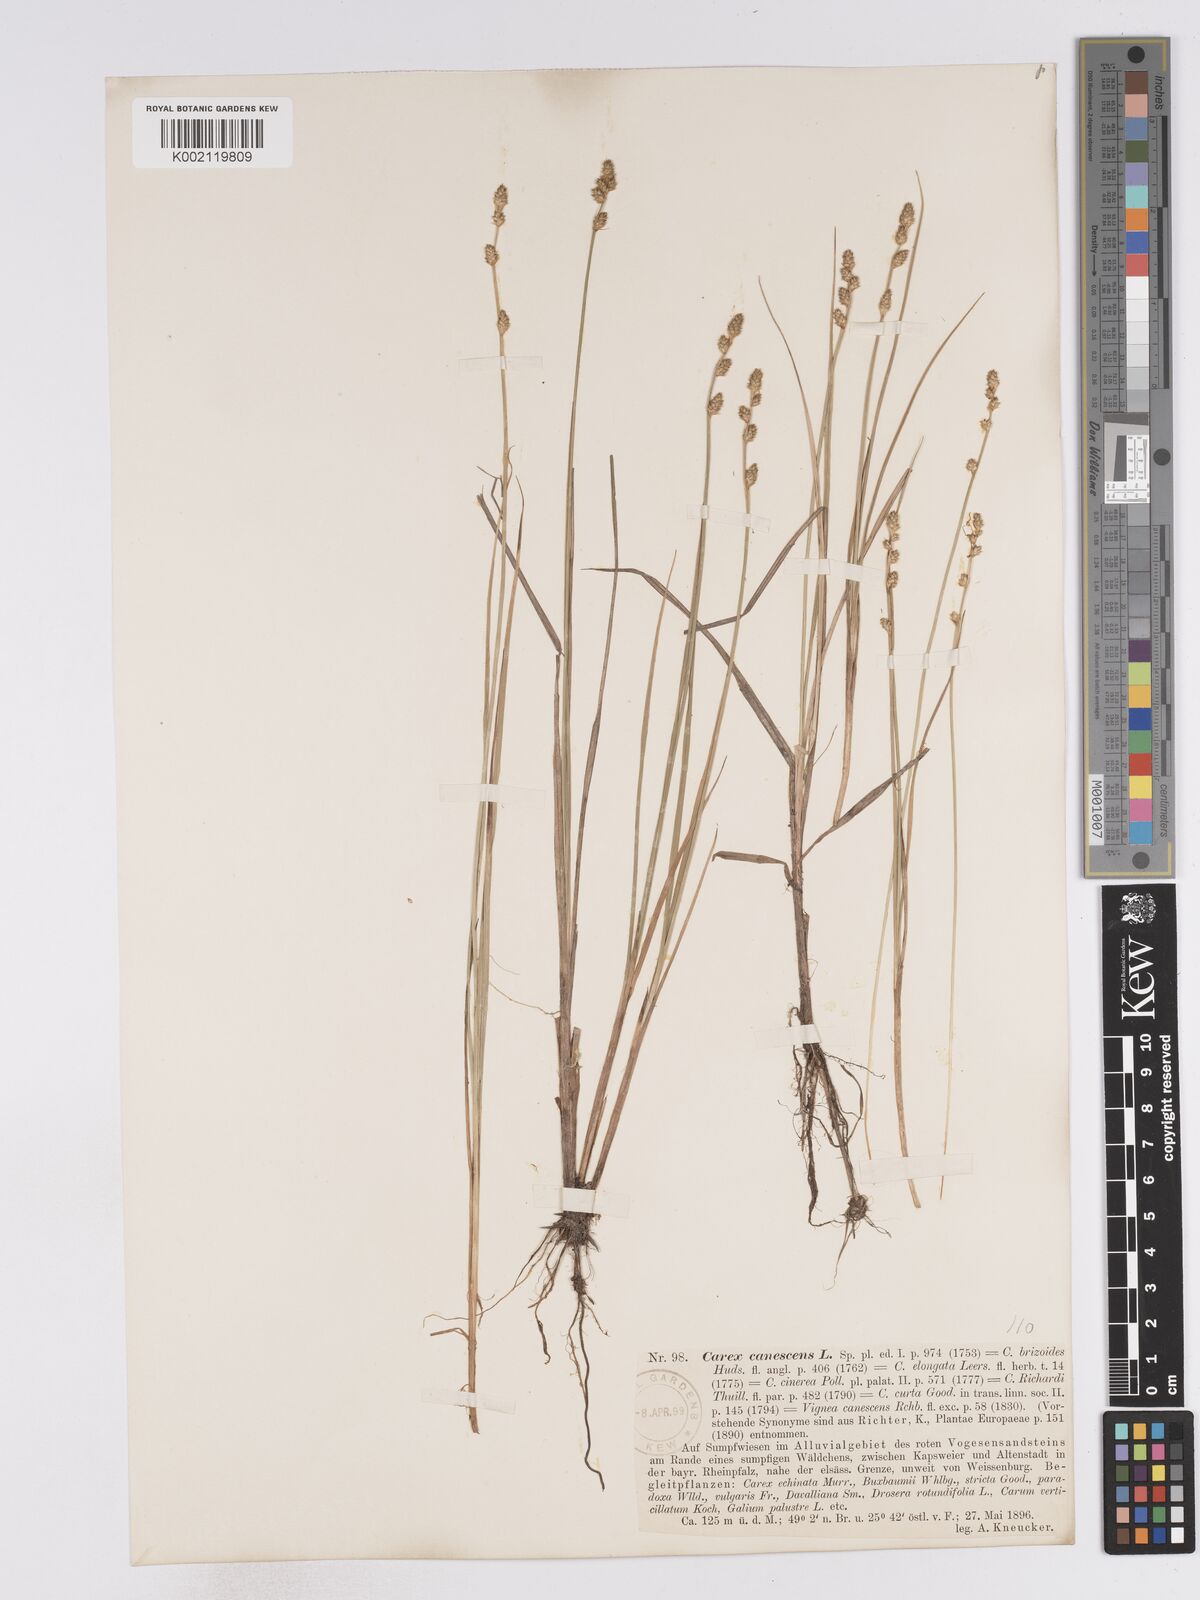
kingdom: Plantae
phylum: Tracheophyta
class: Liliopsida
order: Poales
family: Cyperaceae
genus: Carex
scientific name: Carex curta
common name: White sedge
